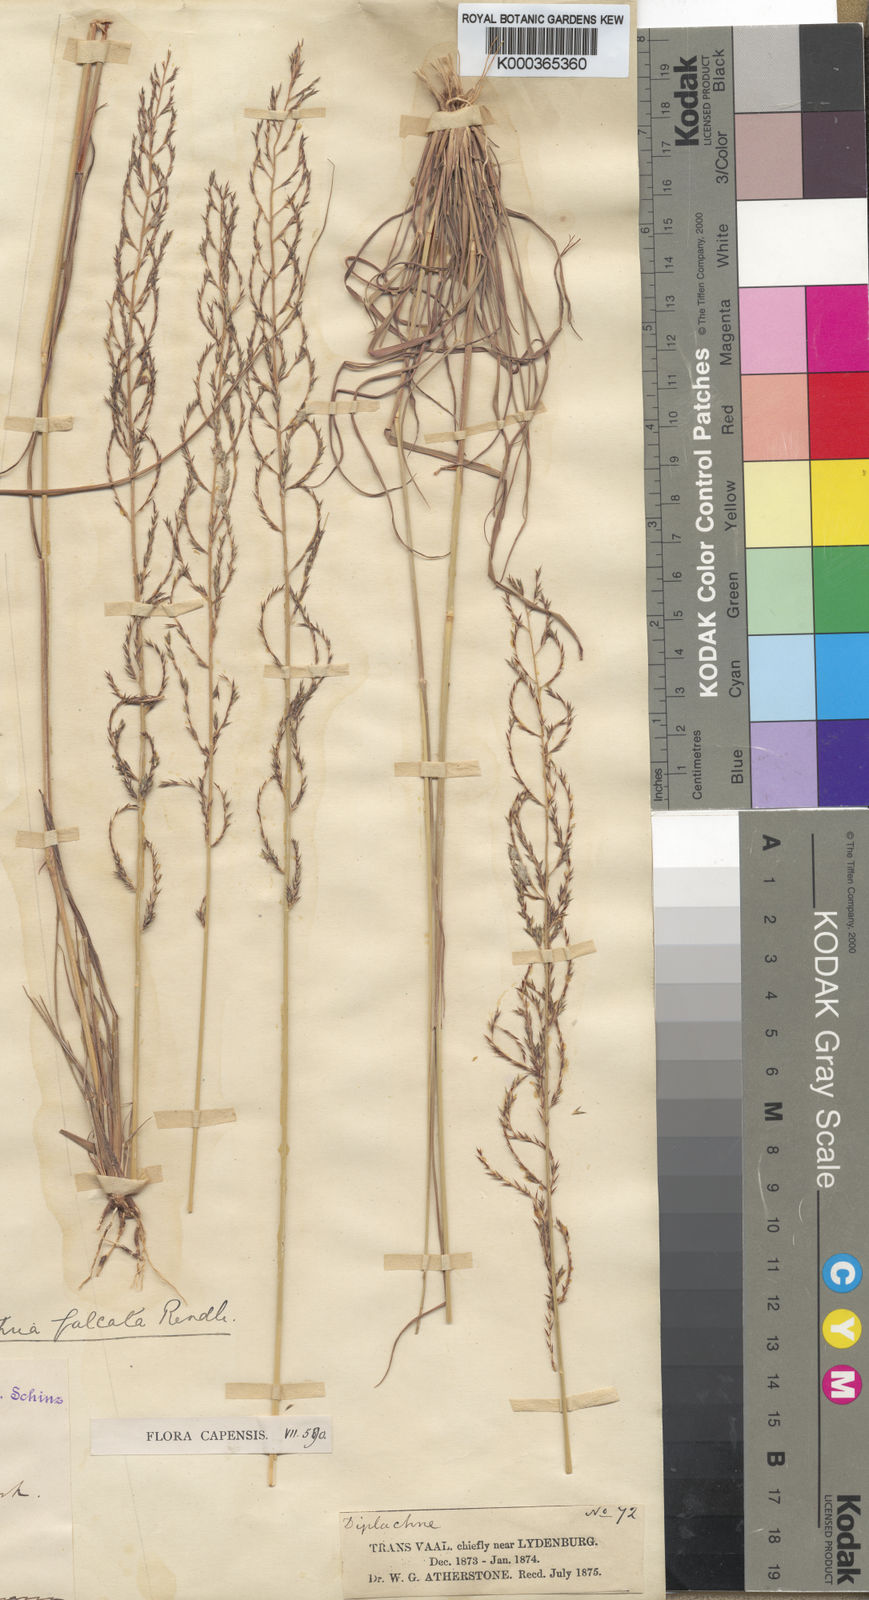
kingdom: Plantae
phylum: Tracheophyta
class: Liliopsida
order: Poales
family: Poaceae
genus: Pogonarthria
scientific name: Pogonarthria squarrosa
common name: Grass
